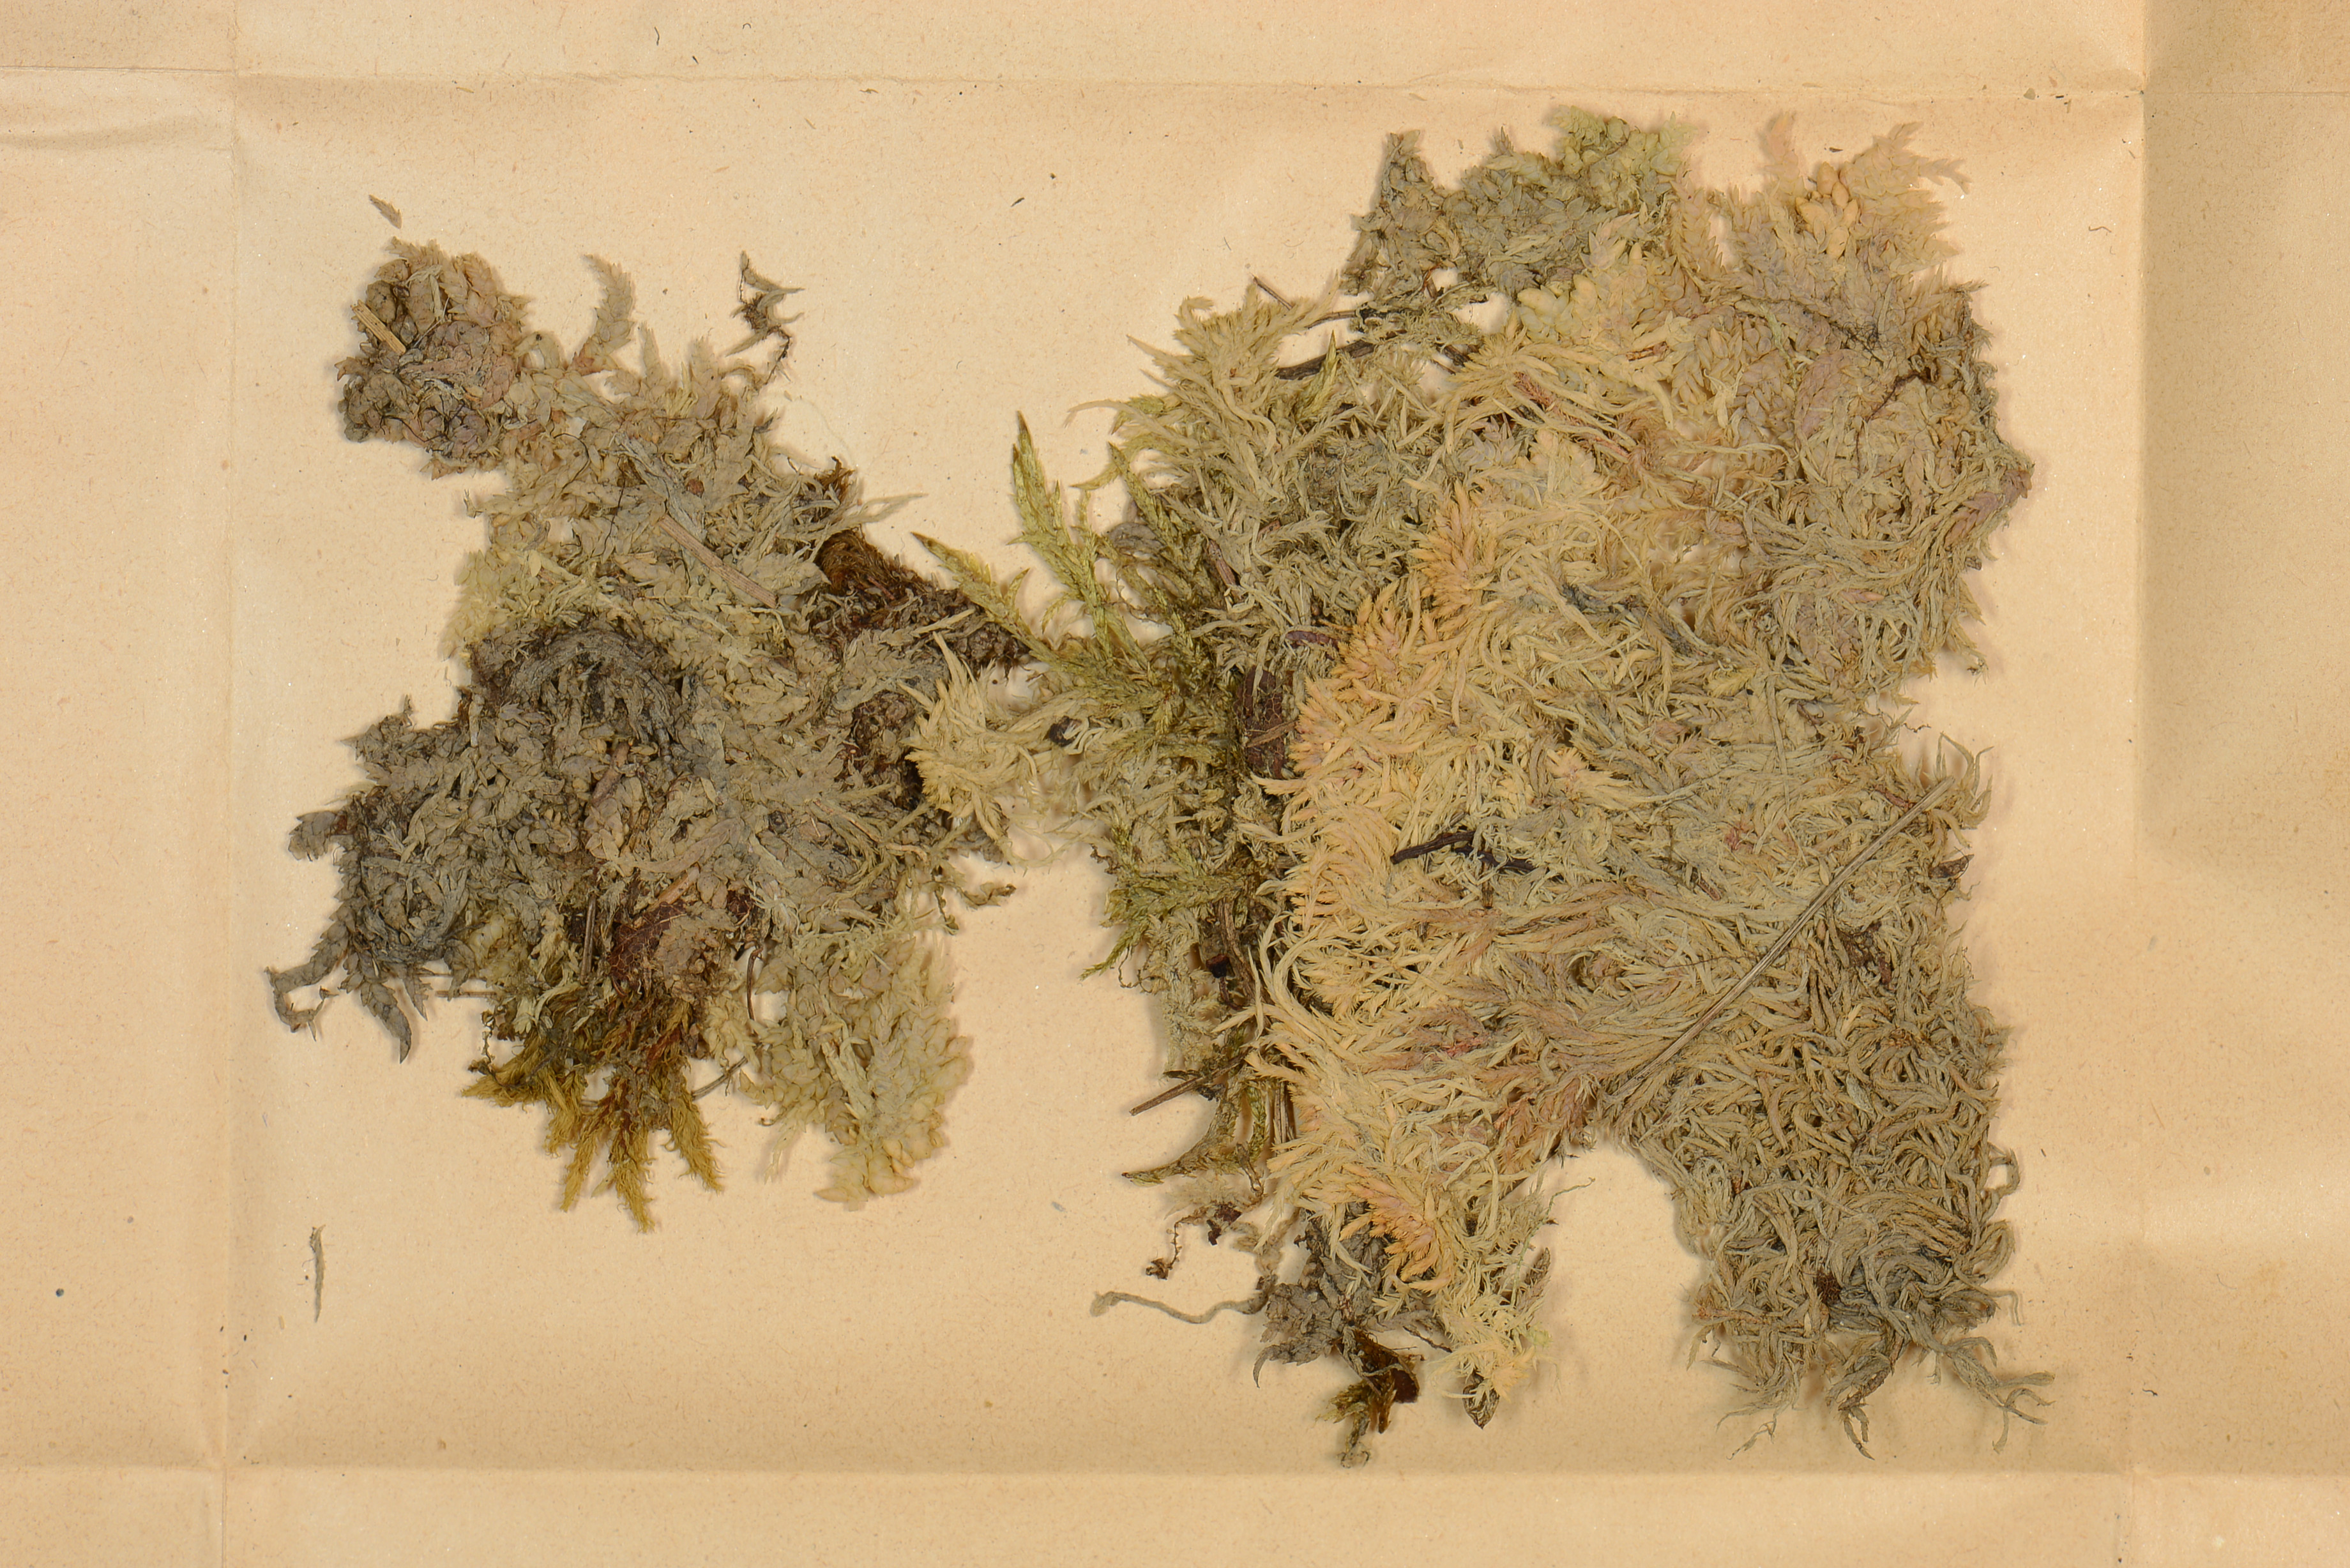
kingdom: Plantae
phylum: Marchantiophyta
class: Jungermanniopsida
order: Jungermanniales
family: Calypogeiaceae
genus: Calypogeia
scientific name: Calypogeia sphagnicola
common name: Bog pouchwort
